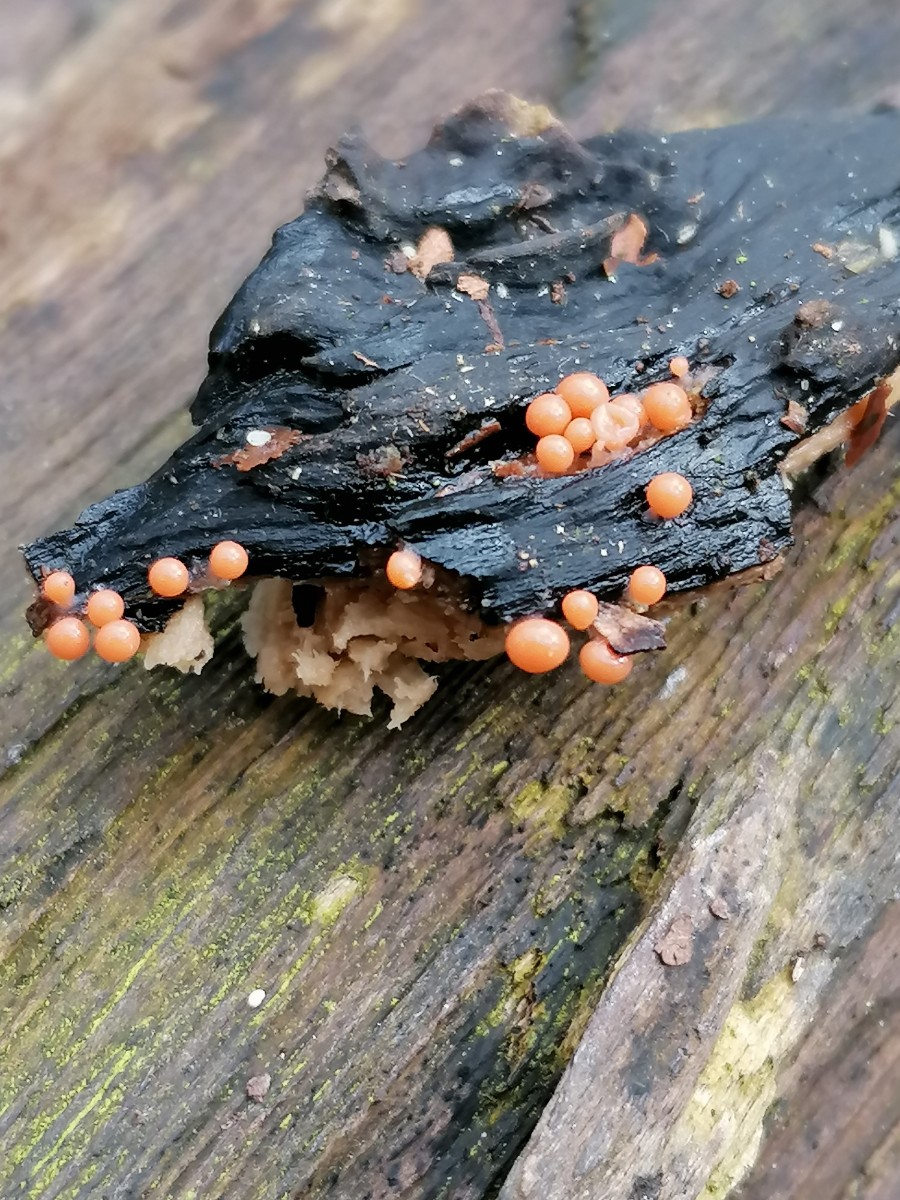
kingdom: Protozoa
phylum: Mycetozoa
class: Myxomycetes
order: Trichiales
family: Trichiaceae
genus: Trichia
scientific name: Trichia
